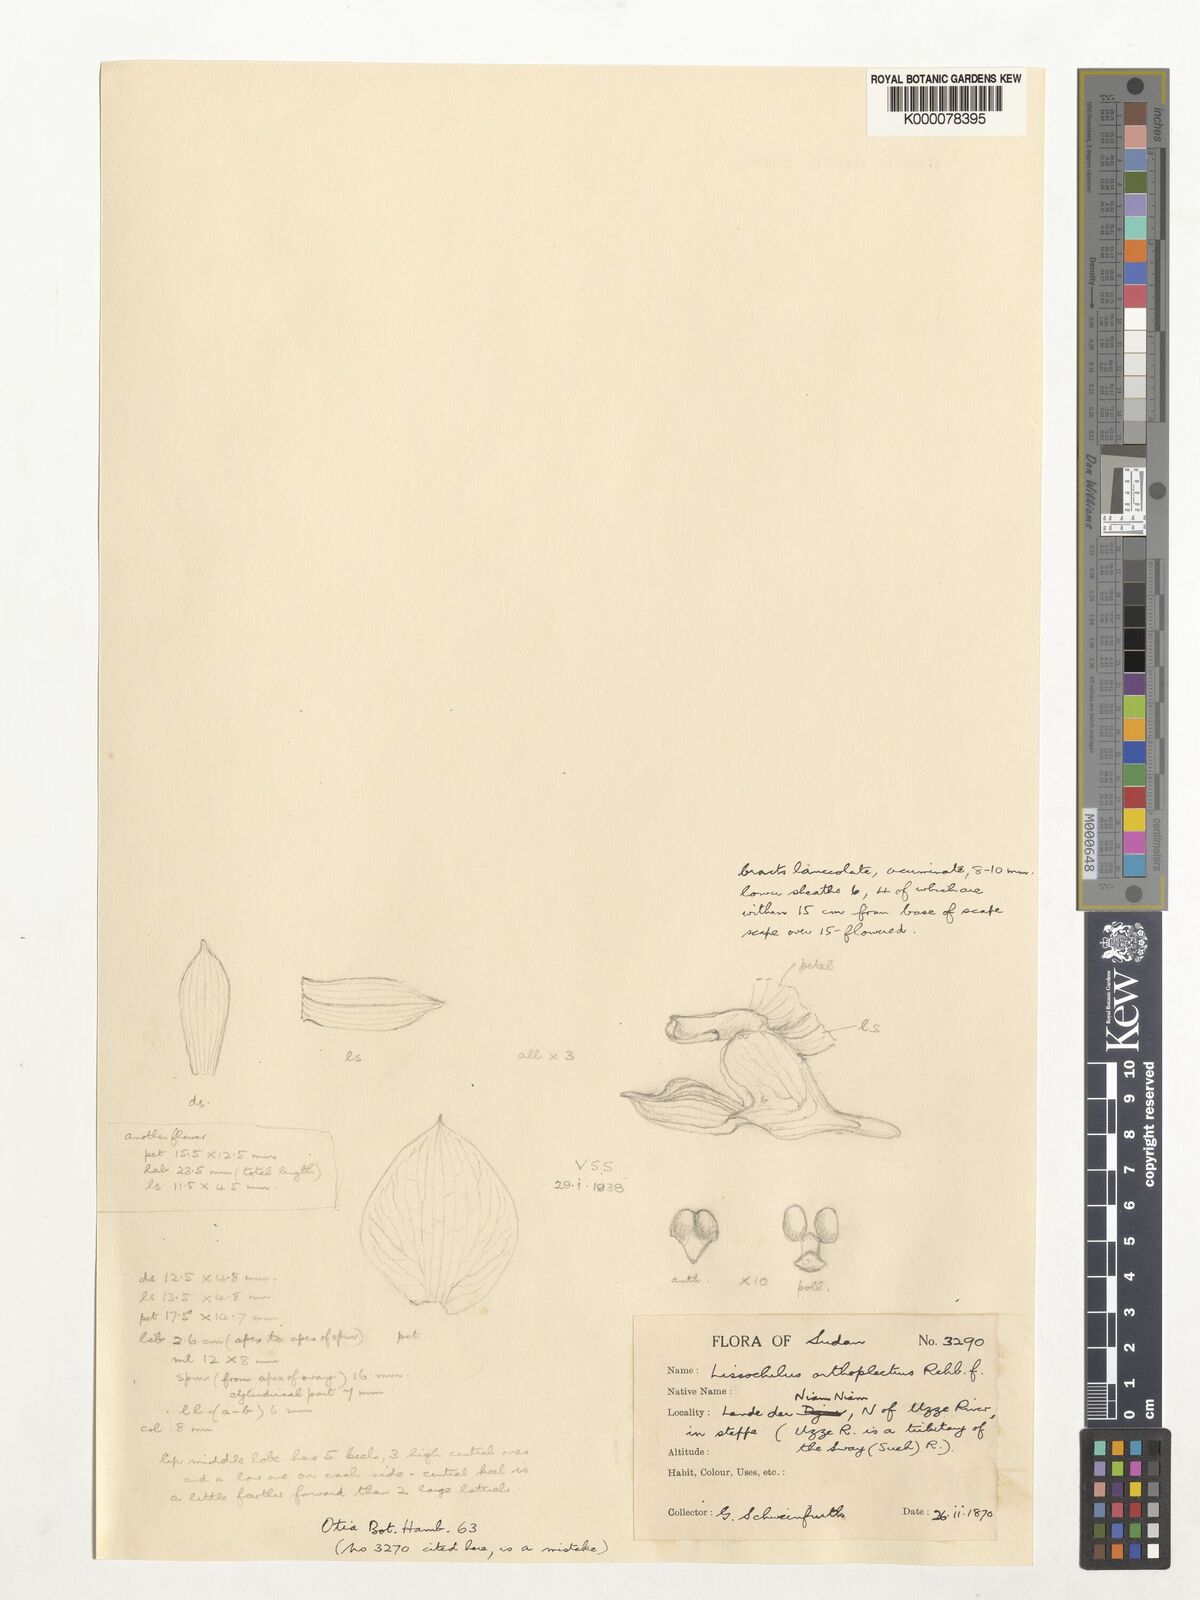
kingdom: Plantae
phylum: Tracheophyta
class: Liliopsida
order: Asparagales
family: Orchidaceae
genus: Eulophia
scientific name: Eulophia orthoplectra
